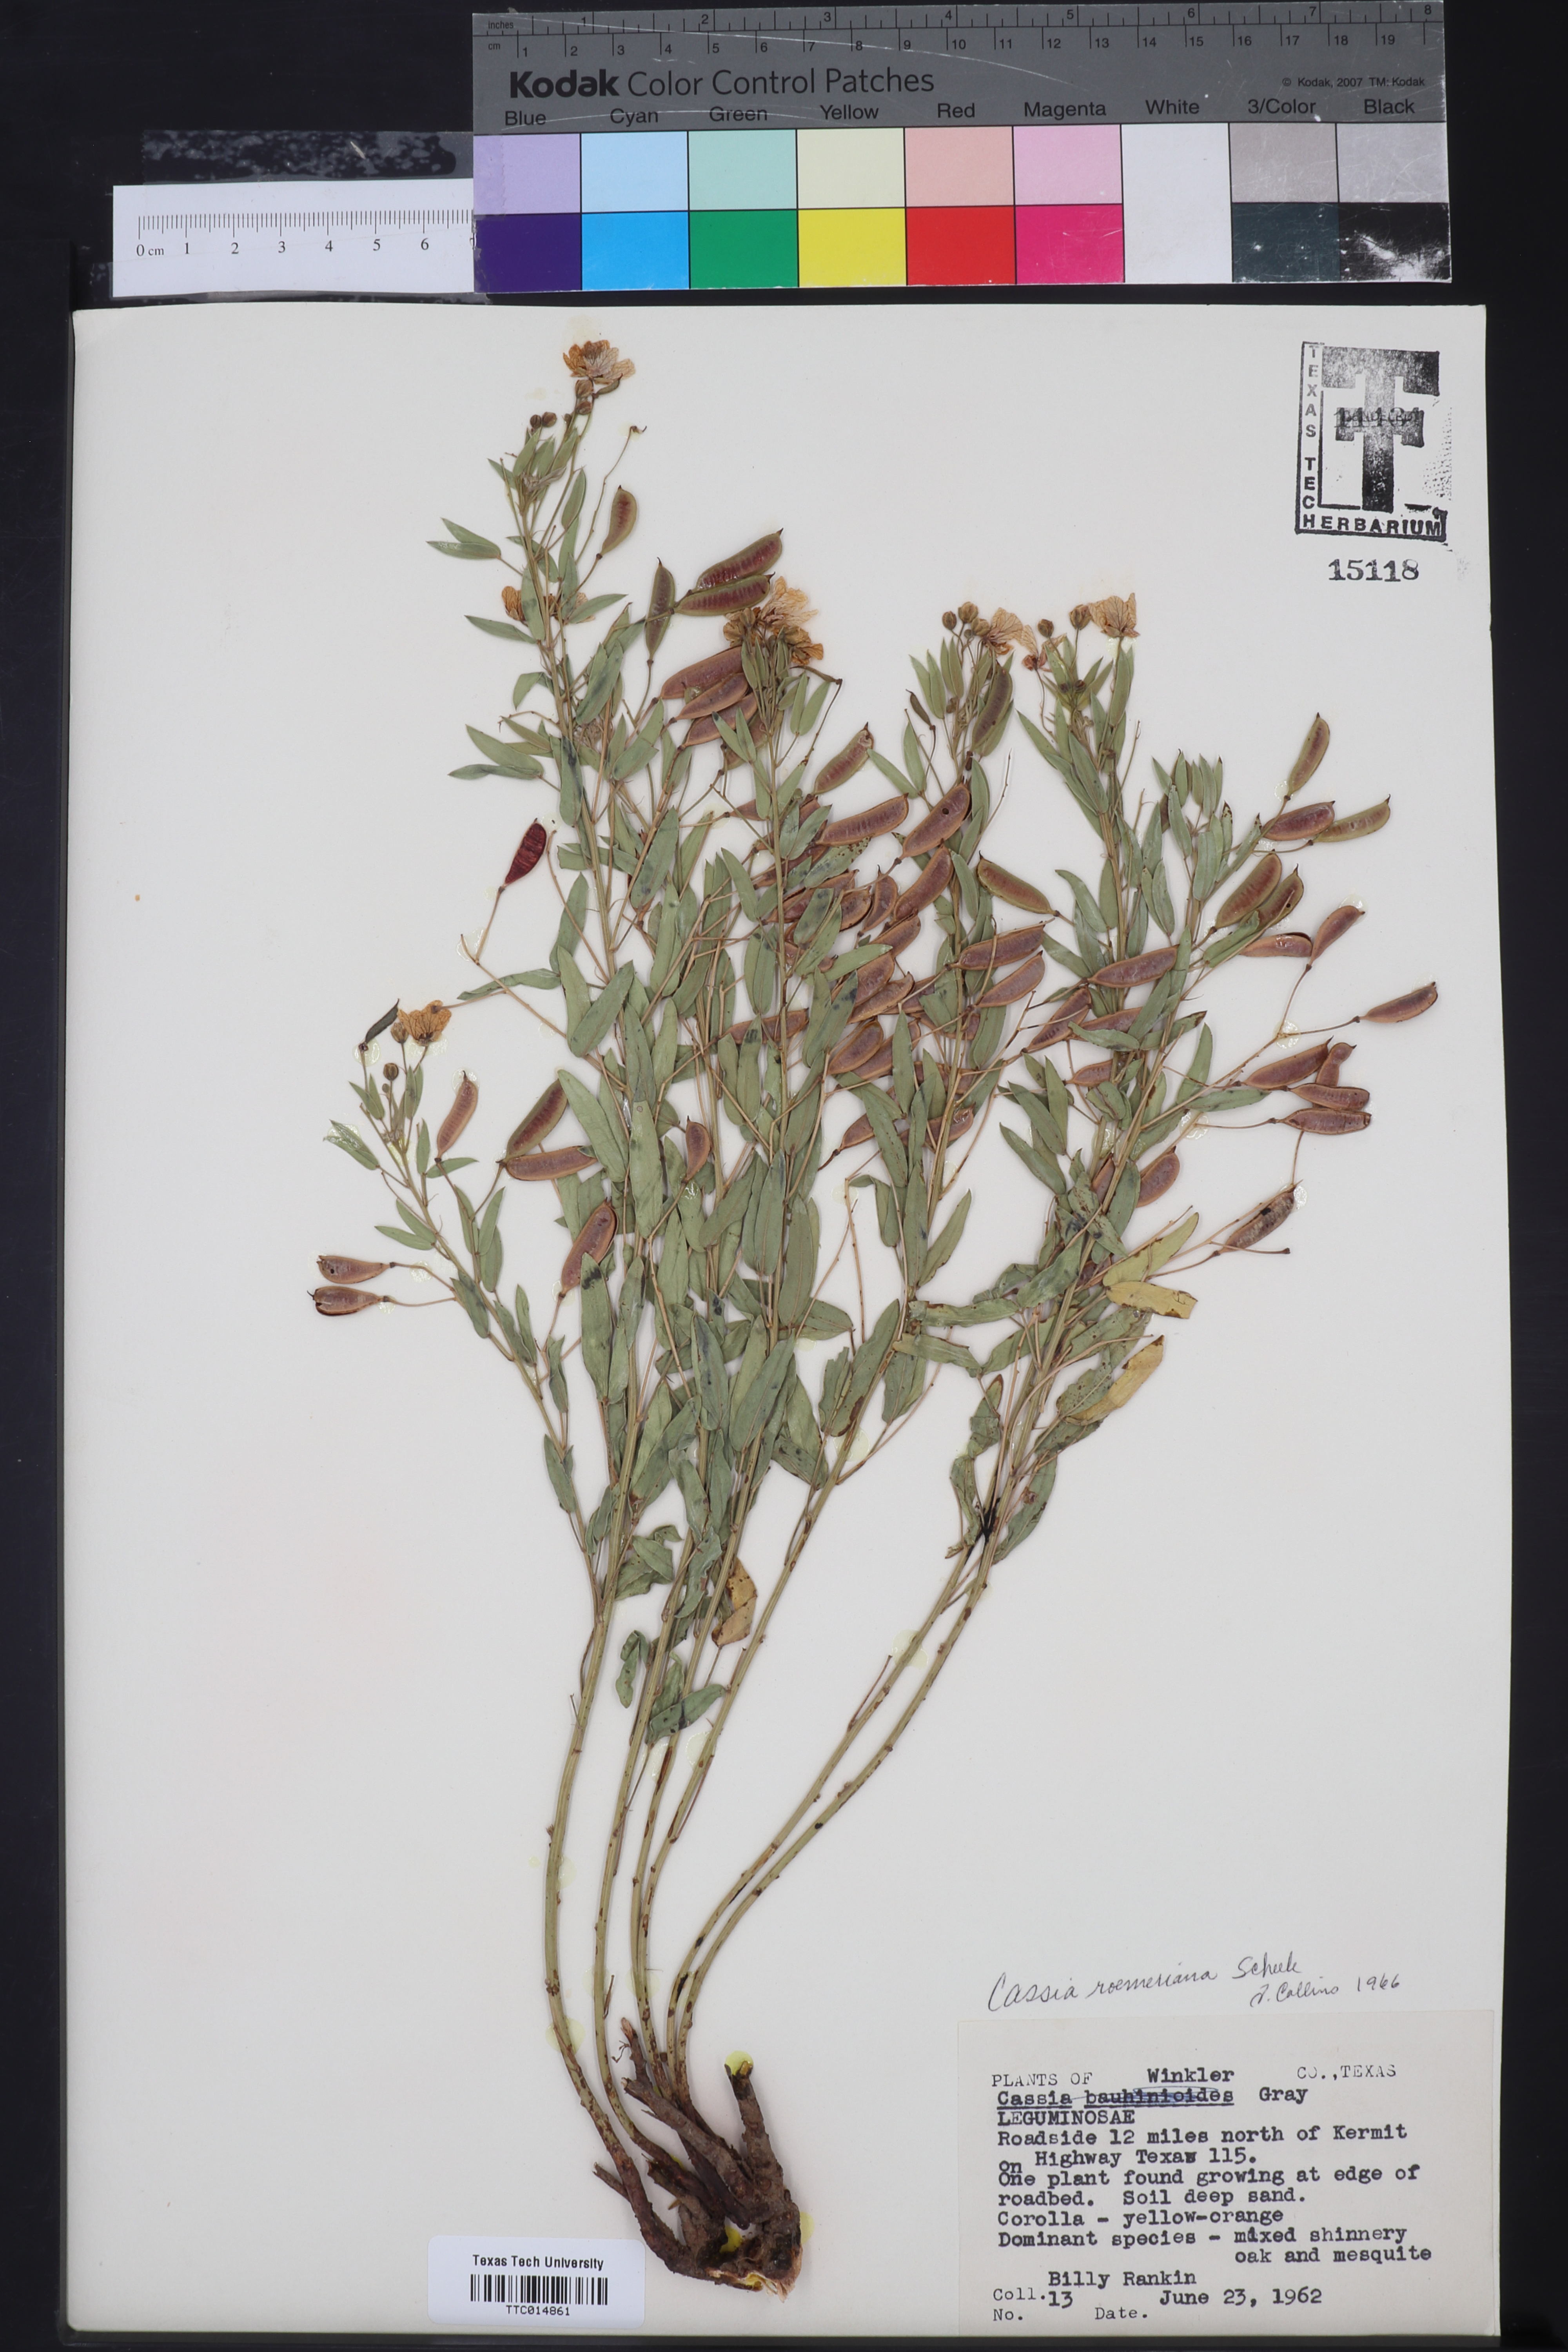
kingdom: Plantae
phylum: Tracheophyta
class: Magnoliopsida
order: Fabales
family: Fabaceae
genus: Senna
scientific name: Senna roemeriana
